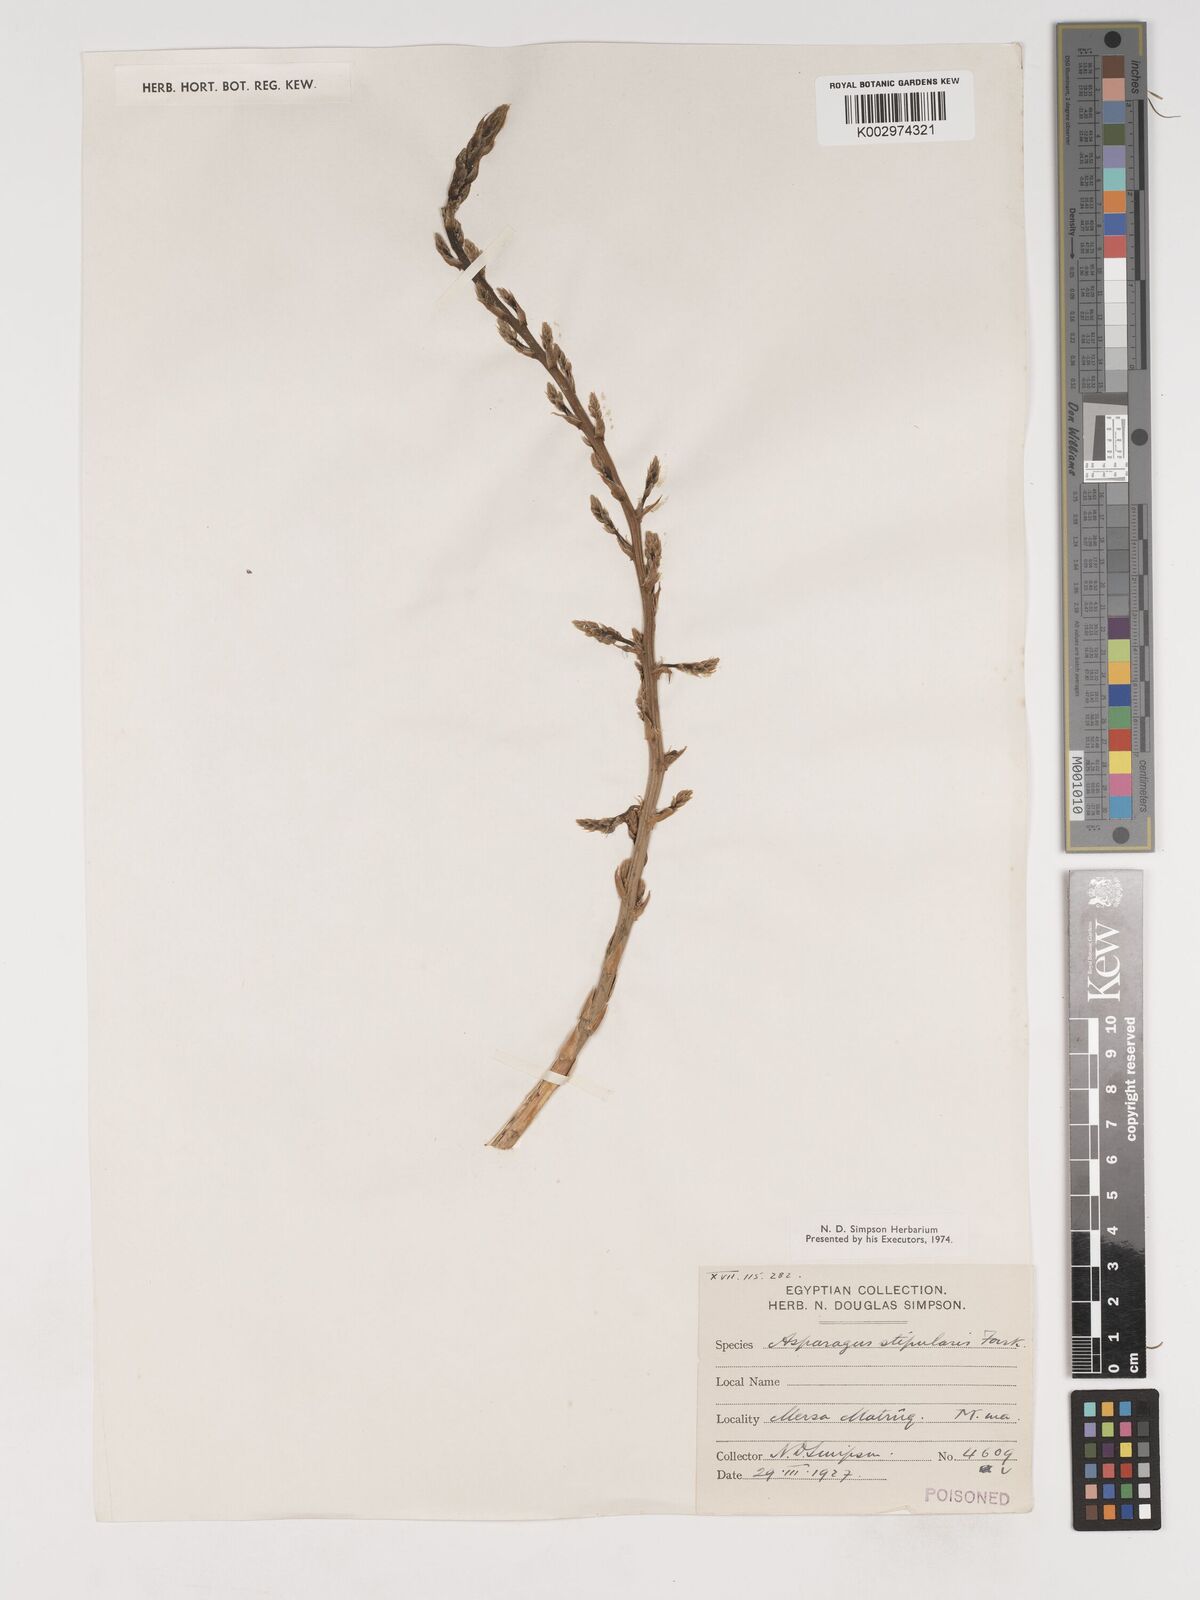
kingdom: Plantae
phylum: Tracheophyta
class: Liliopsida
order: Asparagales
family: Asparagaceae
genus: Asparagus
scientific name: Asparagus aphyllus
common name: Mediterranean asparagus
